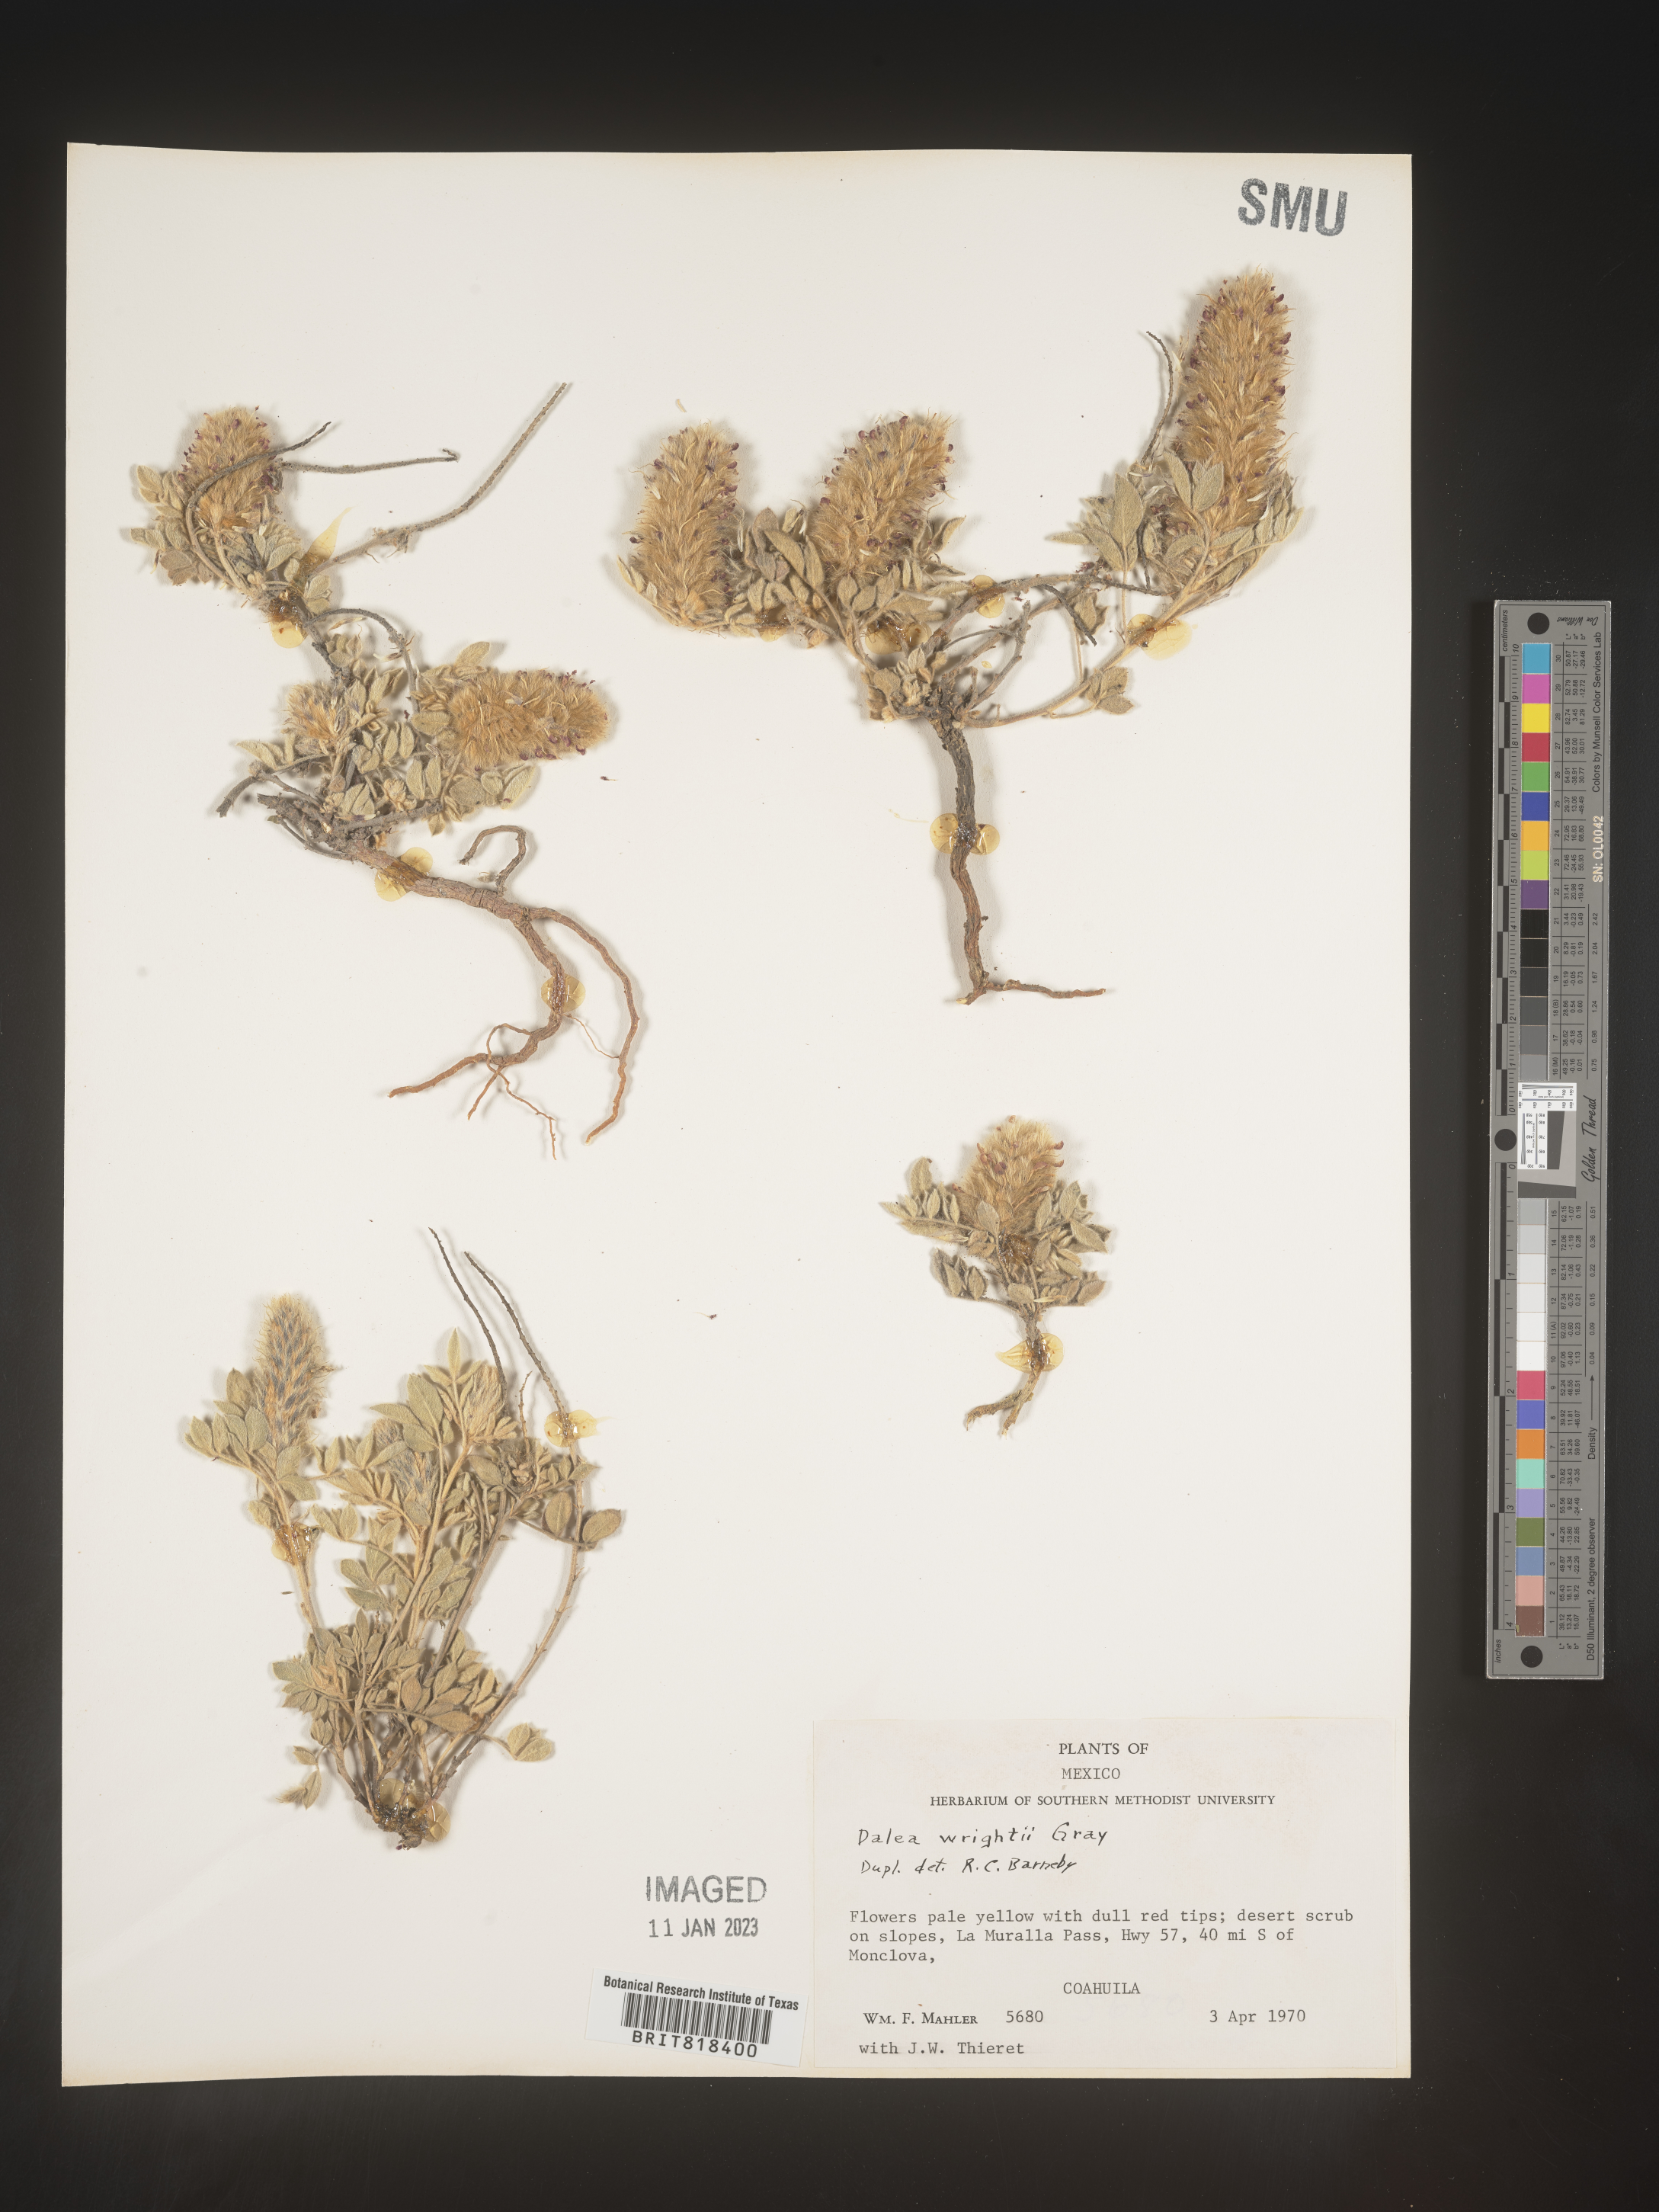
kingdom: Plantae
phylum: Tracheophyta
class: Magnoliopsida
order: Fabales
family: Fabaceae
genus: Dalea
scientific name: Dalea
